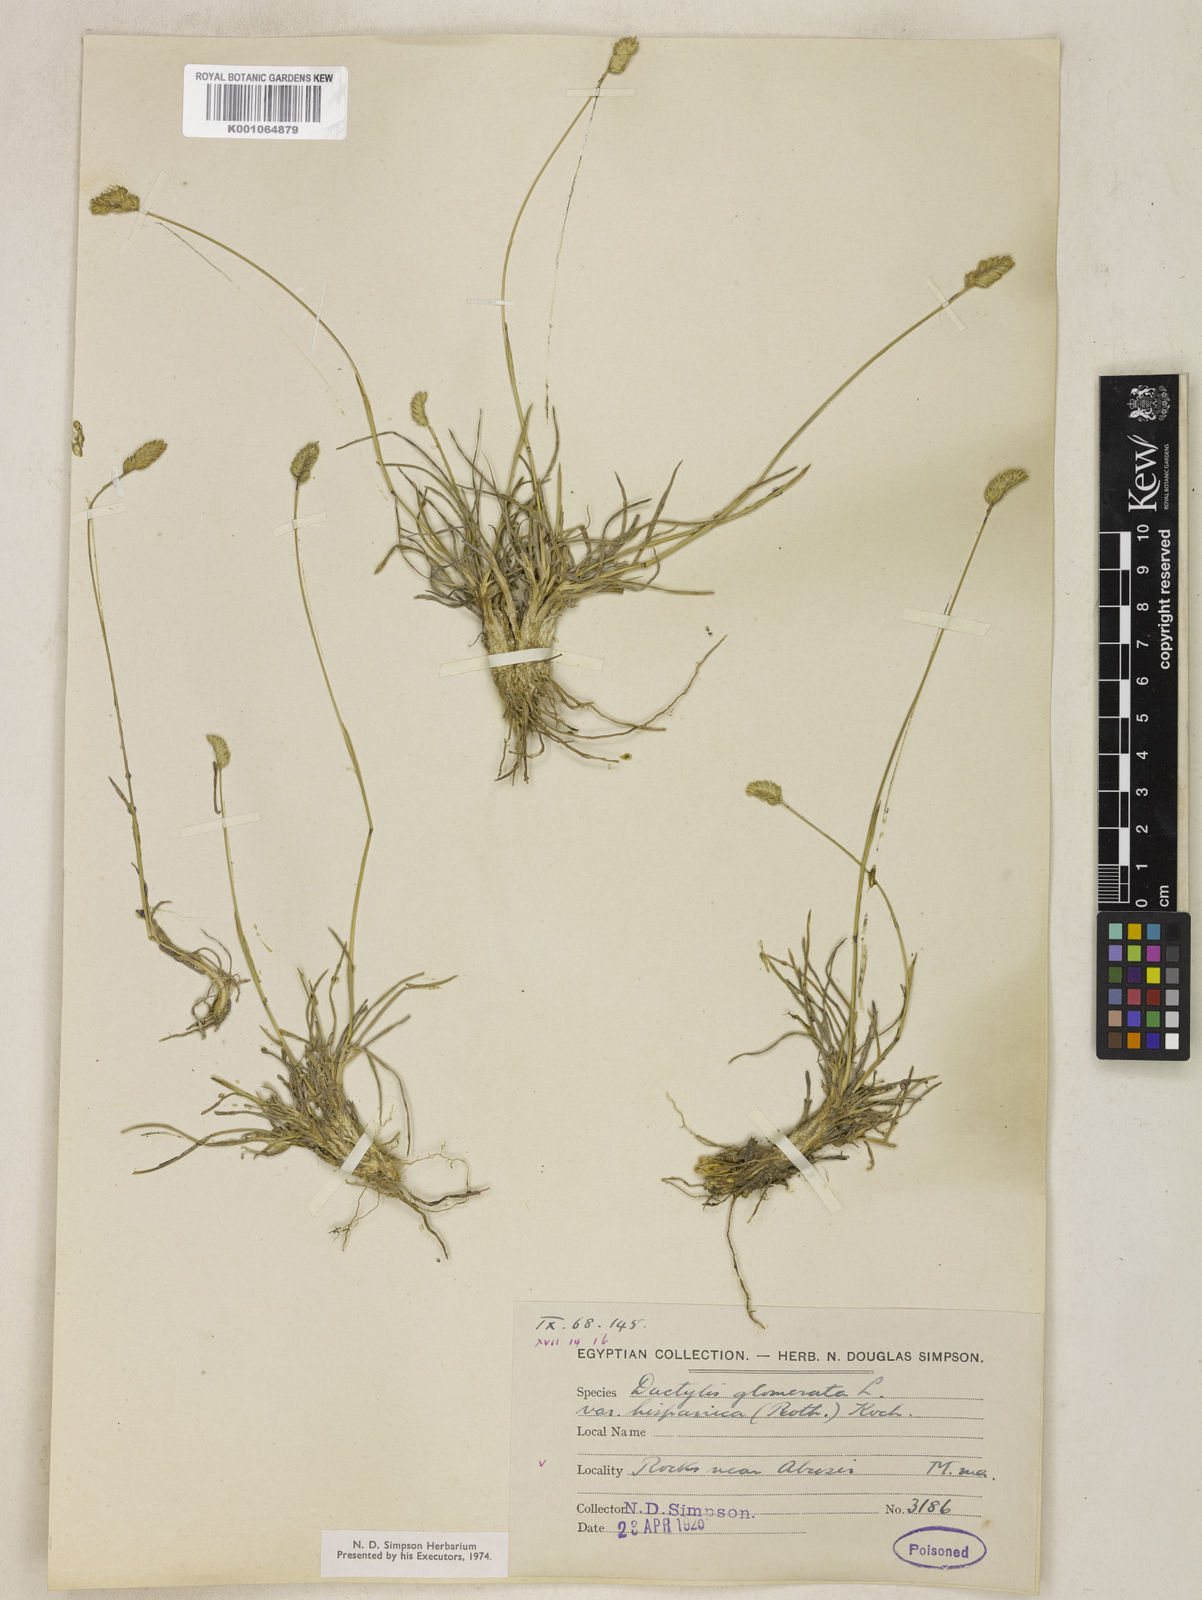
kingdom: Plantae
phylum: Tracheophyta
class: Liliopsida
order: Poales
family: Poaceae
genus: Dactylis
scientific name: Dactylis glomerata
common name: Orchardgrass
